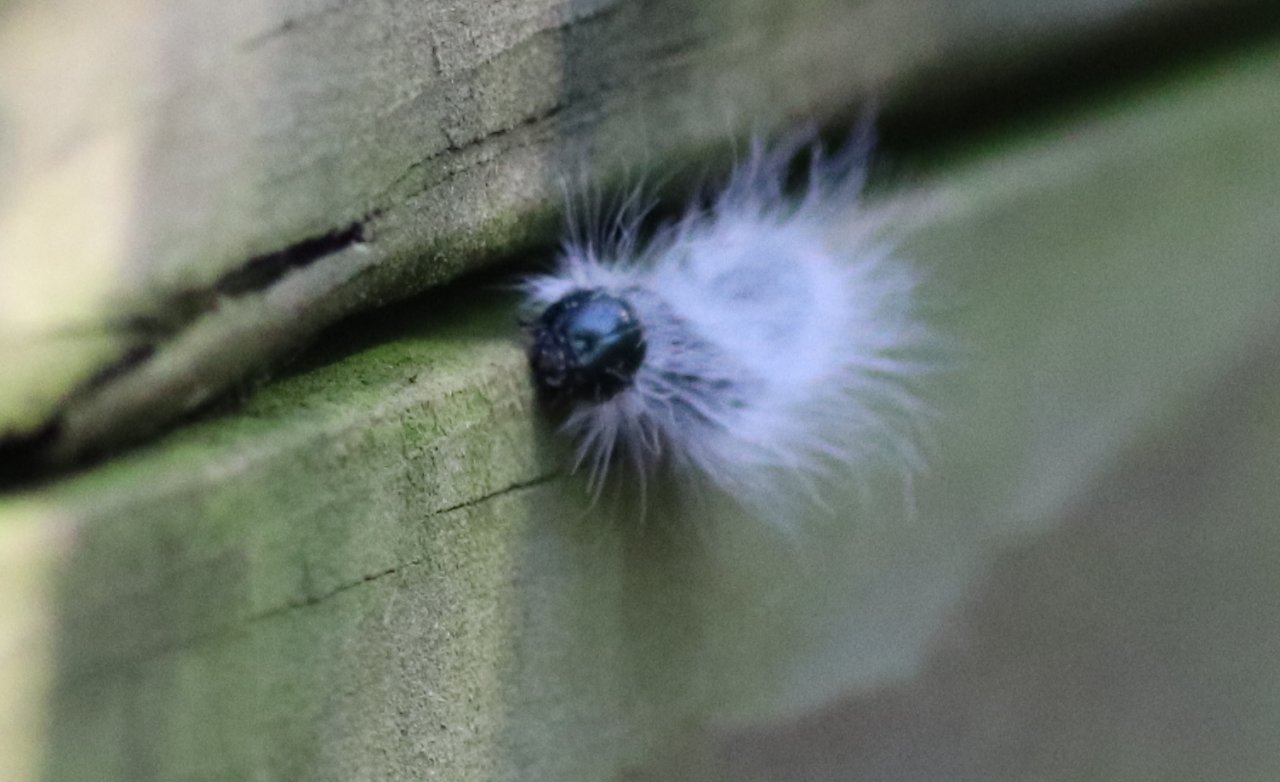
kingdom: Animalia
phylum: Arthropoda
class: Insecta
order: Lepidoptera
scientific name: Lepidoptera
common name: Butterflies
